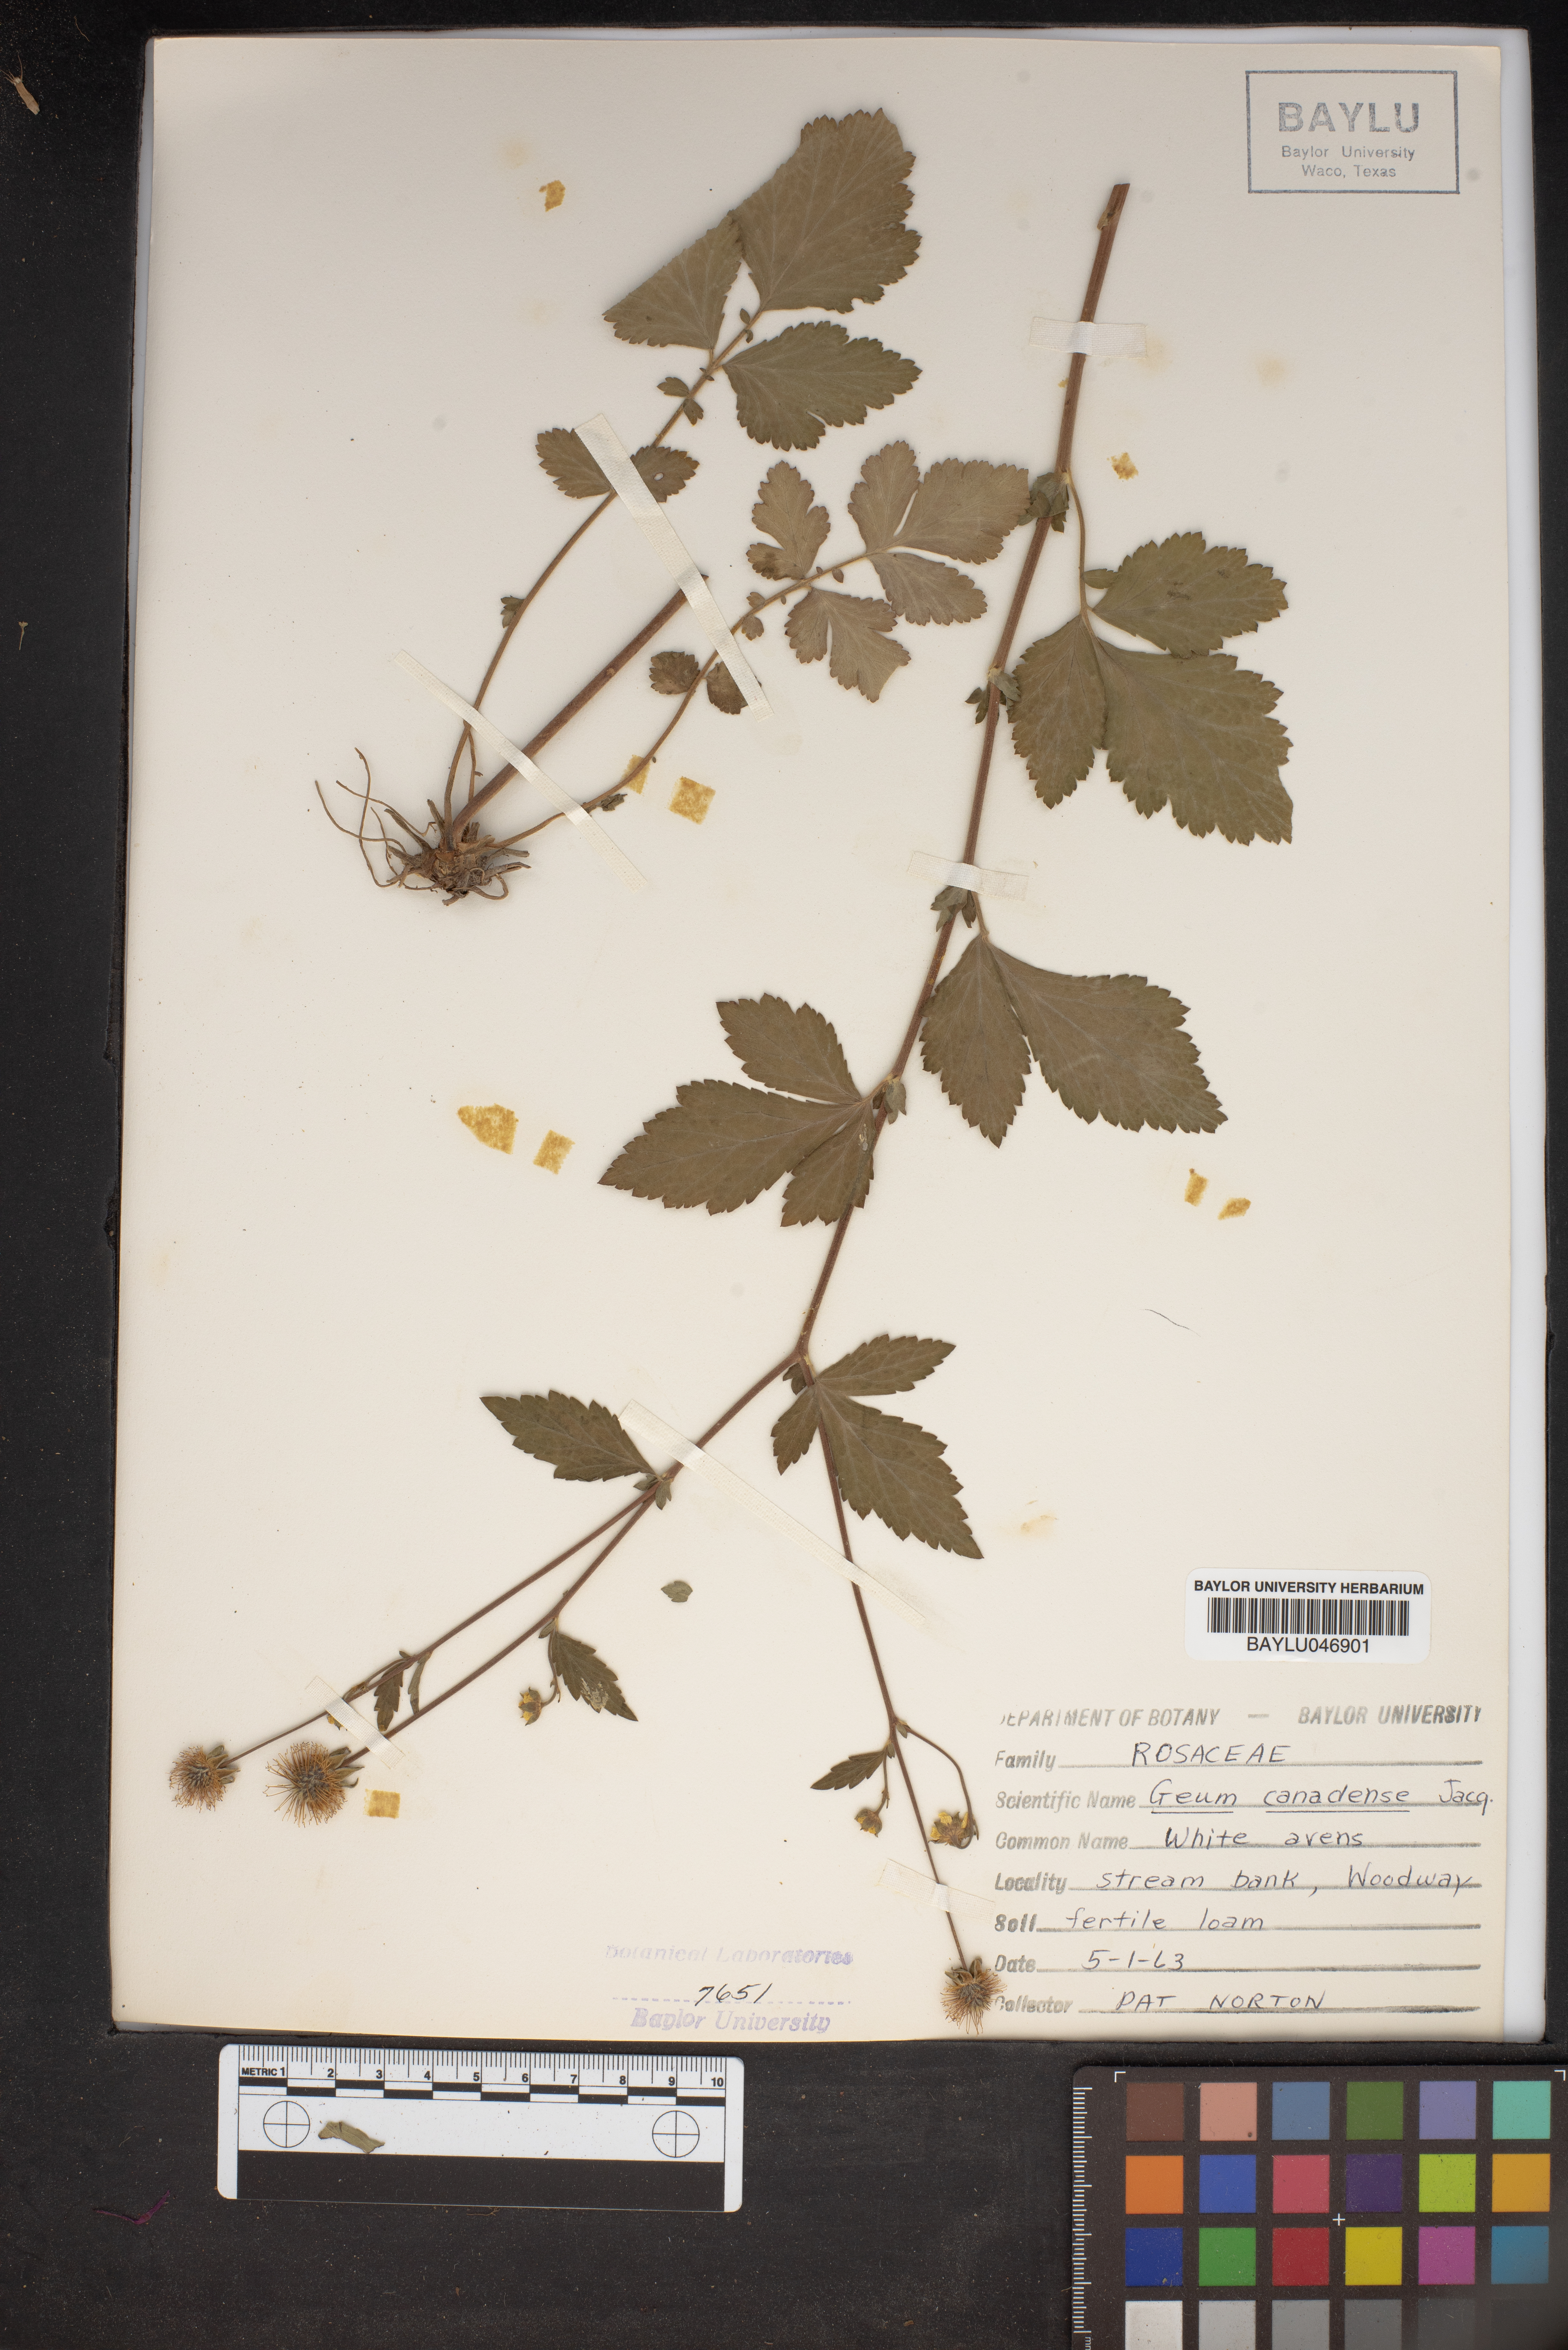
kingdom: Plantae
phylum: Tracheophyta
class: Magnoliopsida
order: Rosales
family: Rosaceae
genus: Geum
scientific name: Geum canadense
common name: White avens
